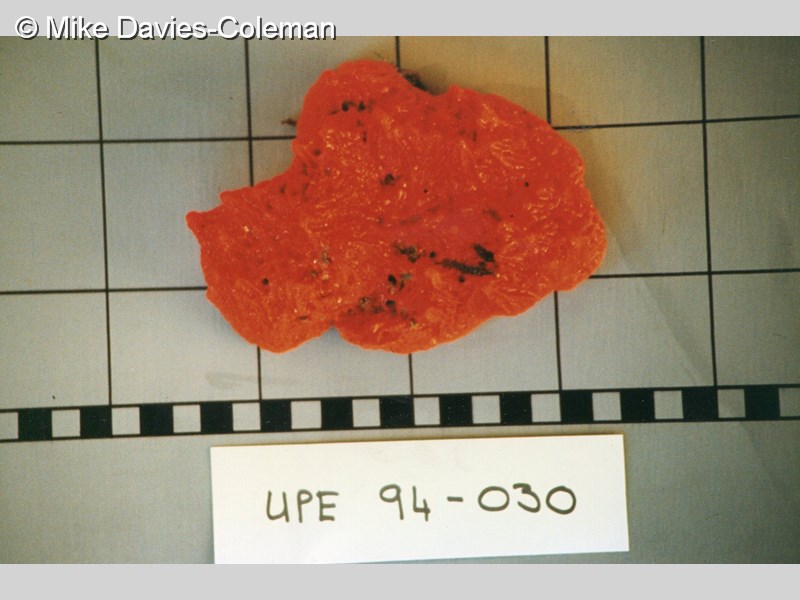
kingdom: Animalia
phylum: Porifera
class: Demospongiae
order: Axinellida
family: Axinellidae
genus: Dragmacidon
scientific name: Dragmacidon sanguineum
